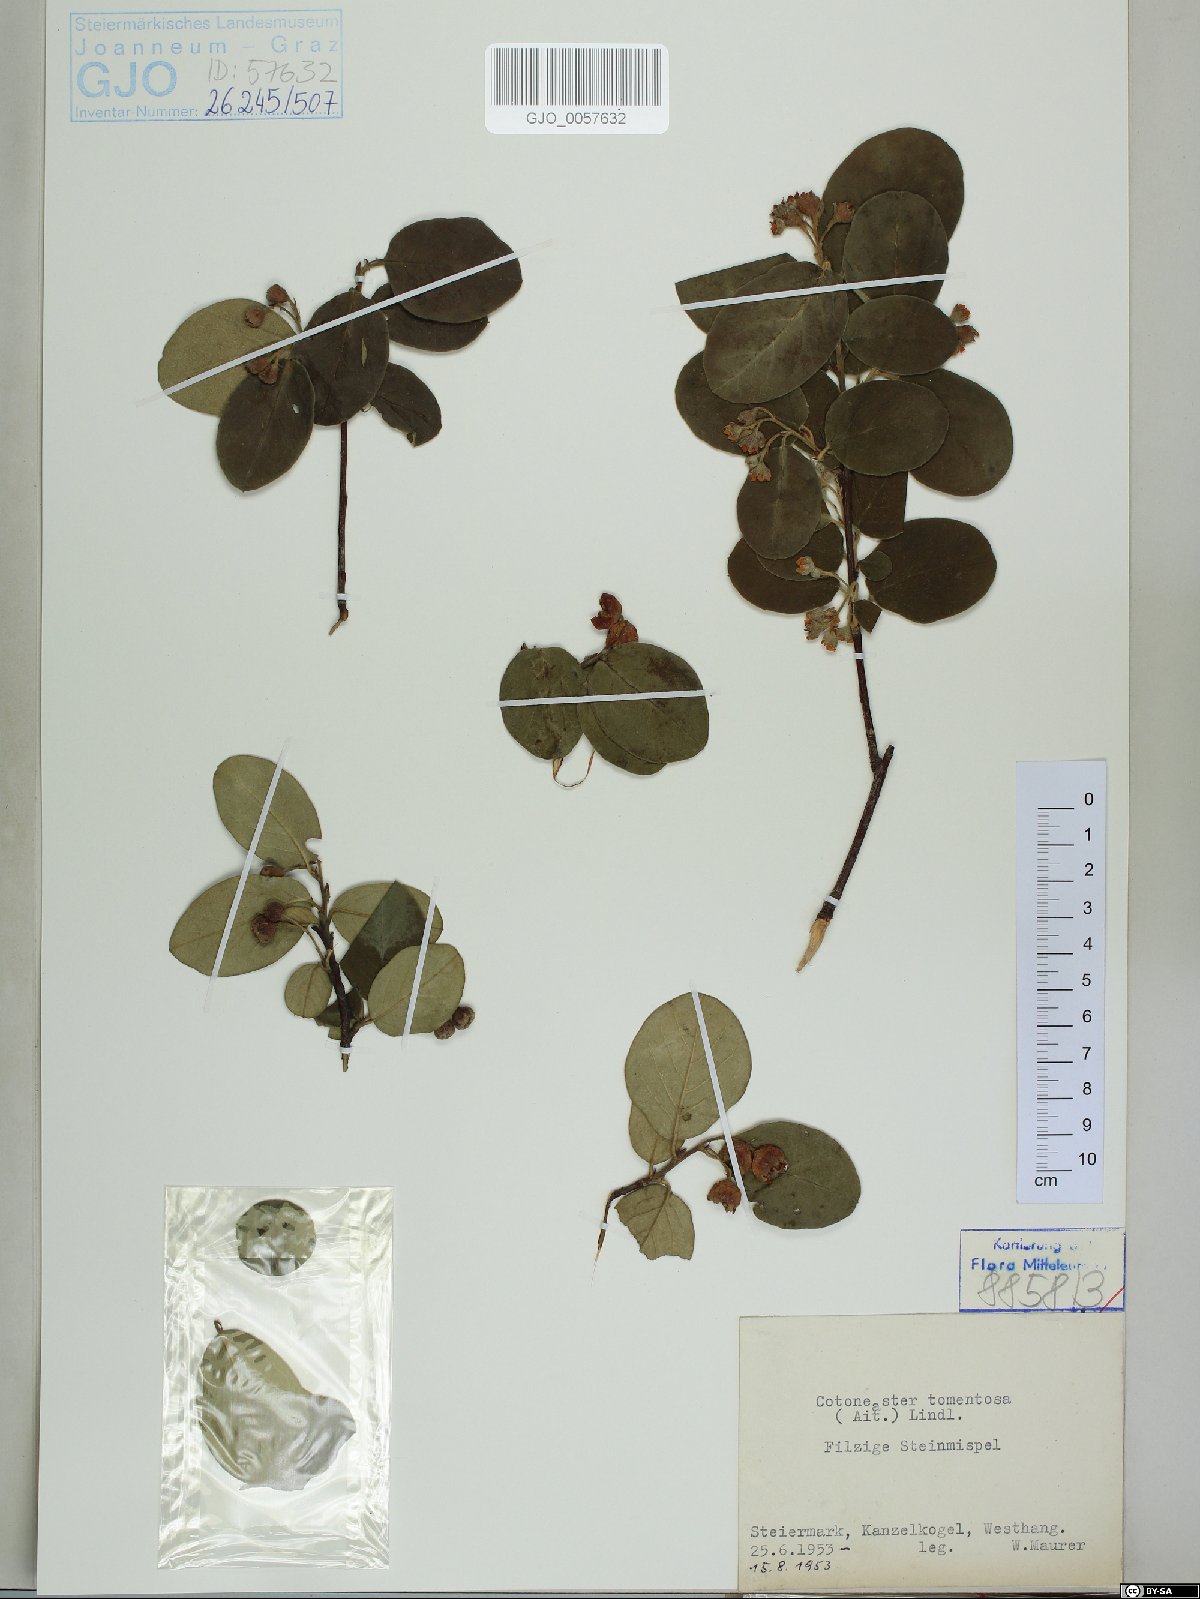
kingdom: Plantae
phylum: Tracheophyta
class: Magnoliopsida
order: Rosales
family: Rosaceae
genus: Cotoneaster
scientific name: Cotoneaster tomentosus
